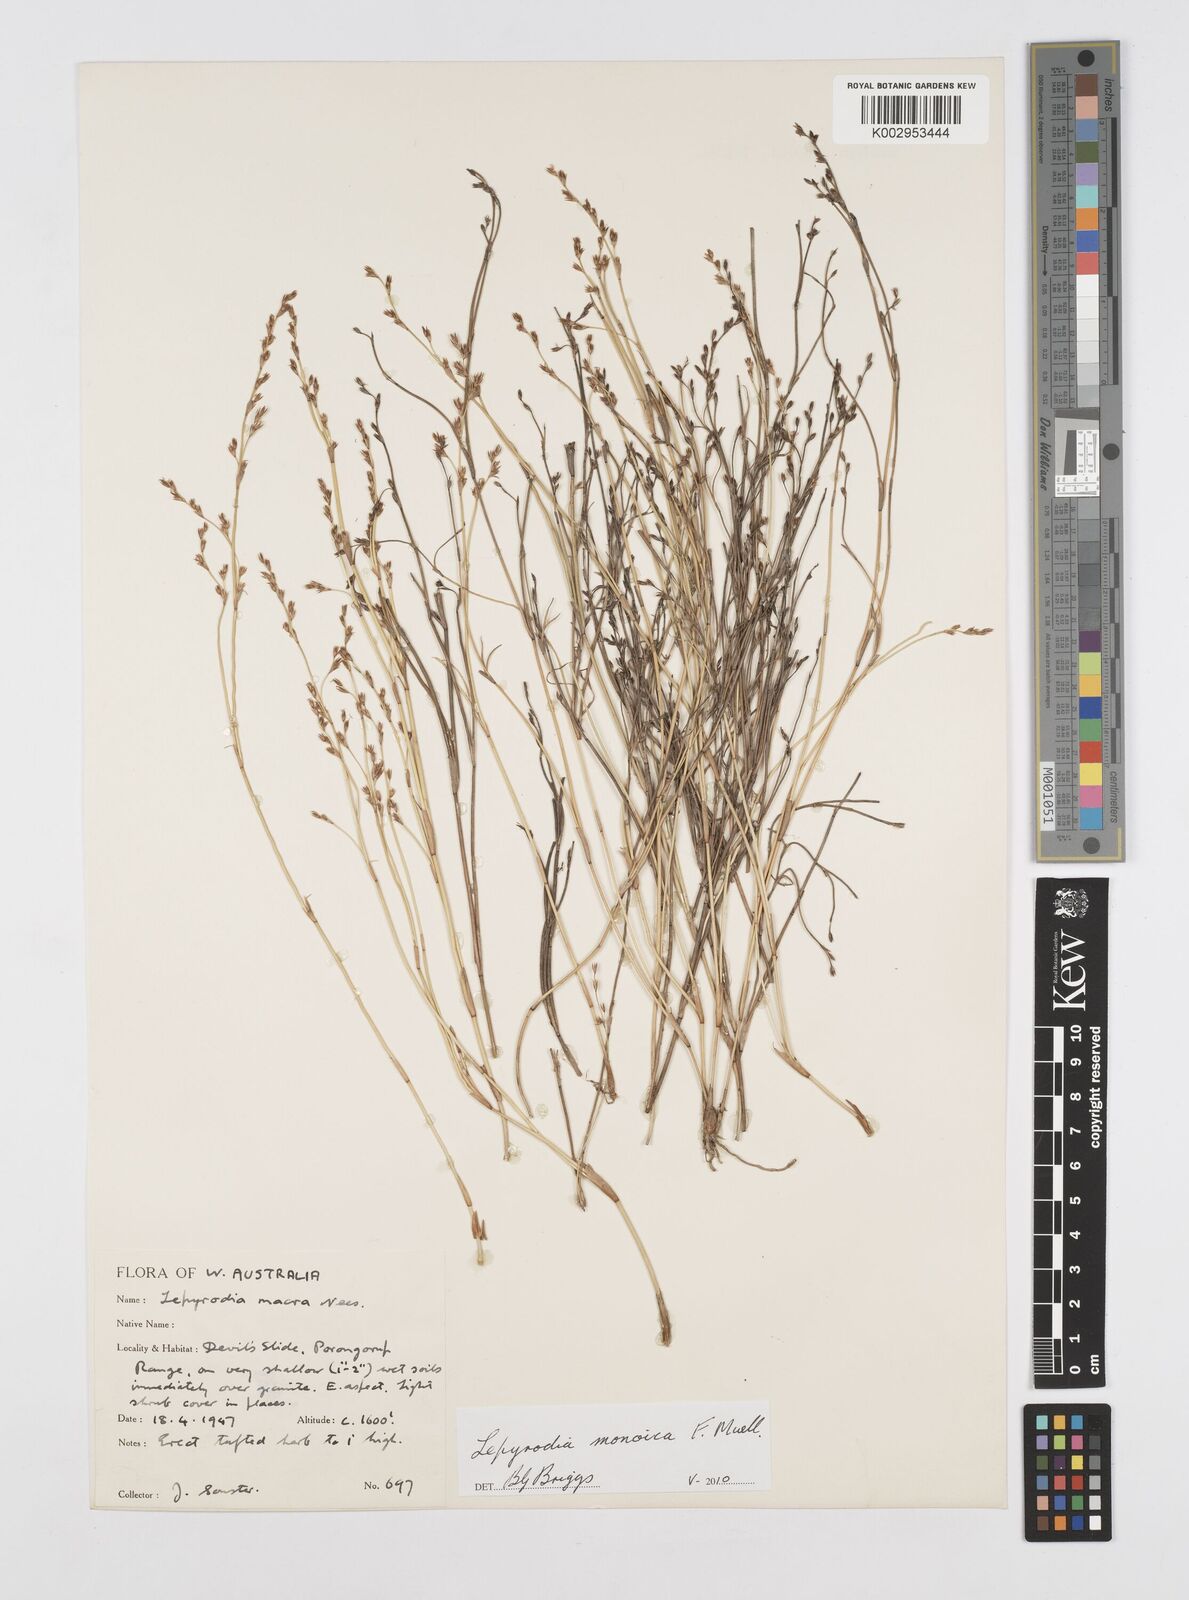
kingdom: Plantae
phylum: Tracheophyta
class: Liliopsida
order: Poales
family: Restionaceae
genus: Lepyrodia
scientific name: Lepyrodia monoica
